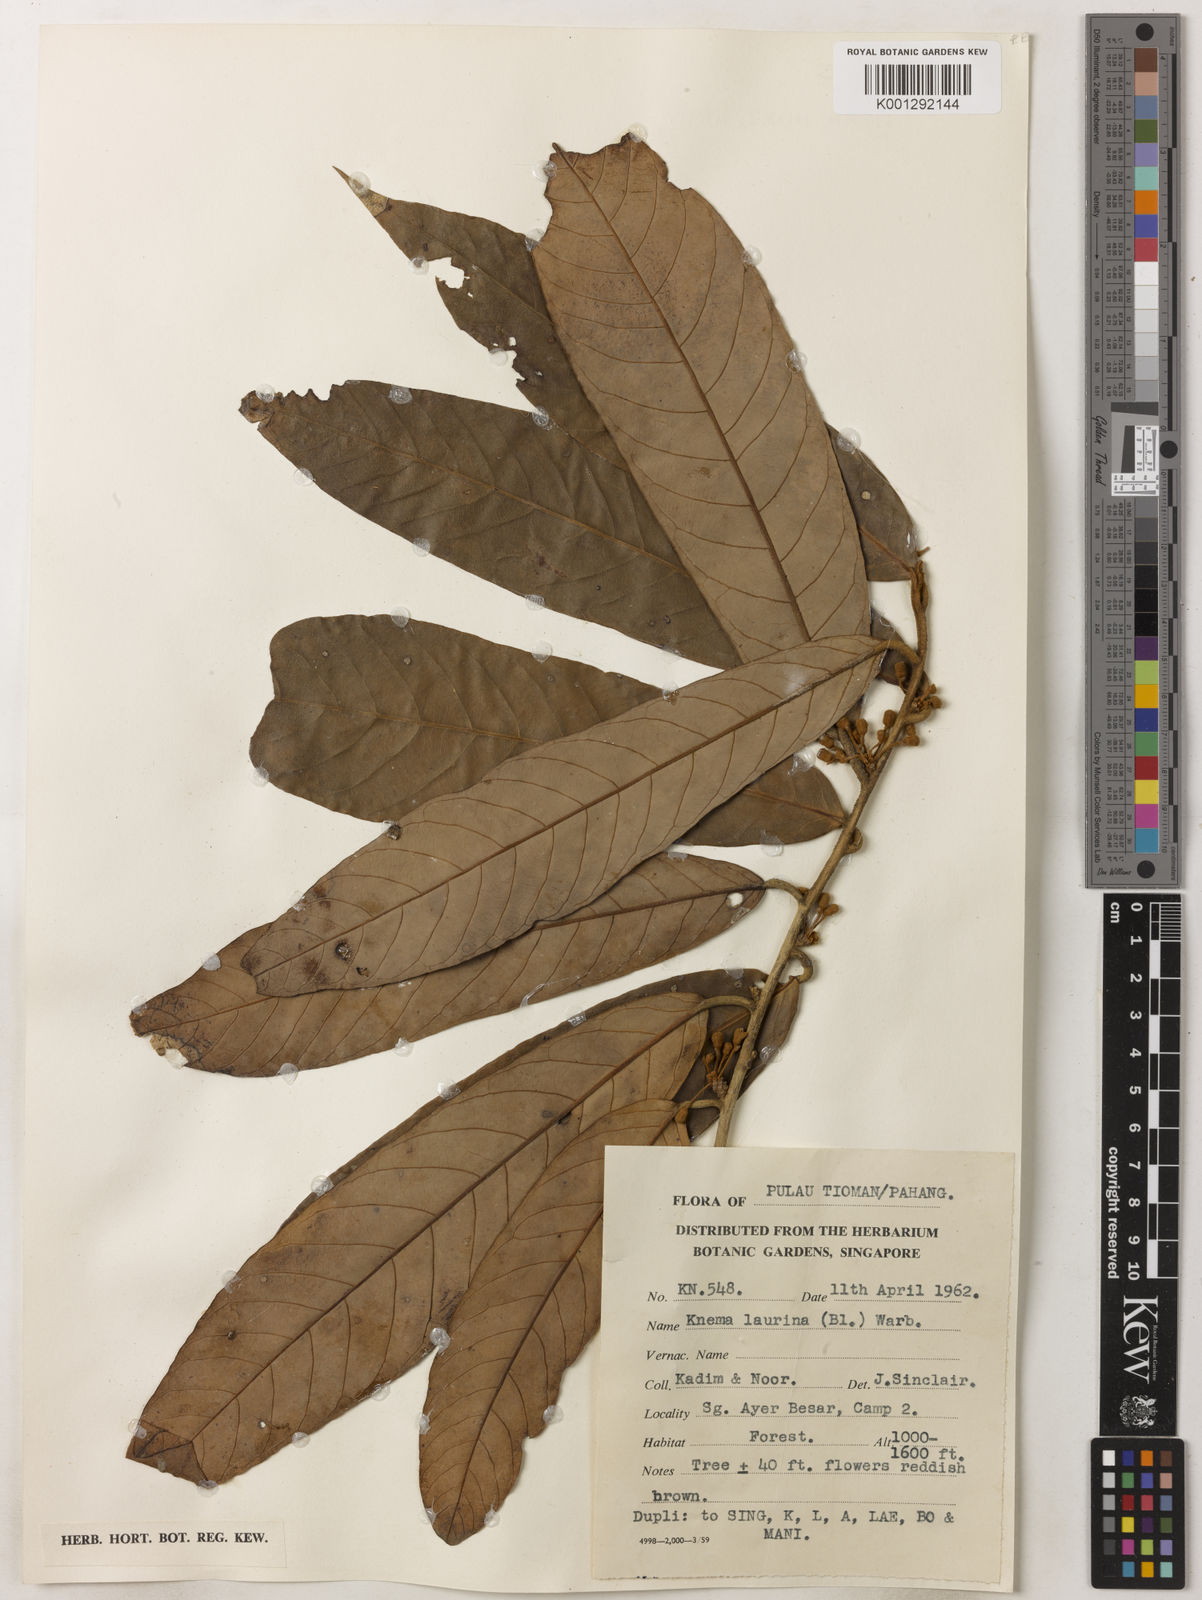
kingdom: Plantae
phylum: Tracheophyta
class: Magnoliopsida
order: Magnoliales
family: Myristicaceae
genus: Knema
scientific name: Knema laurina
